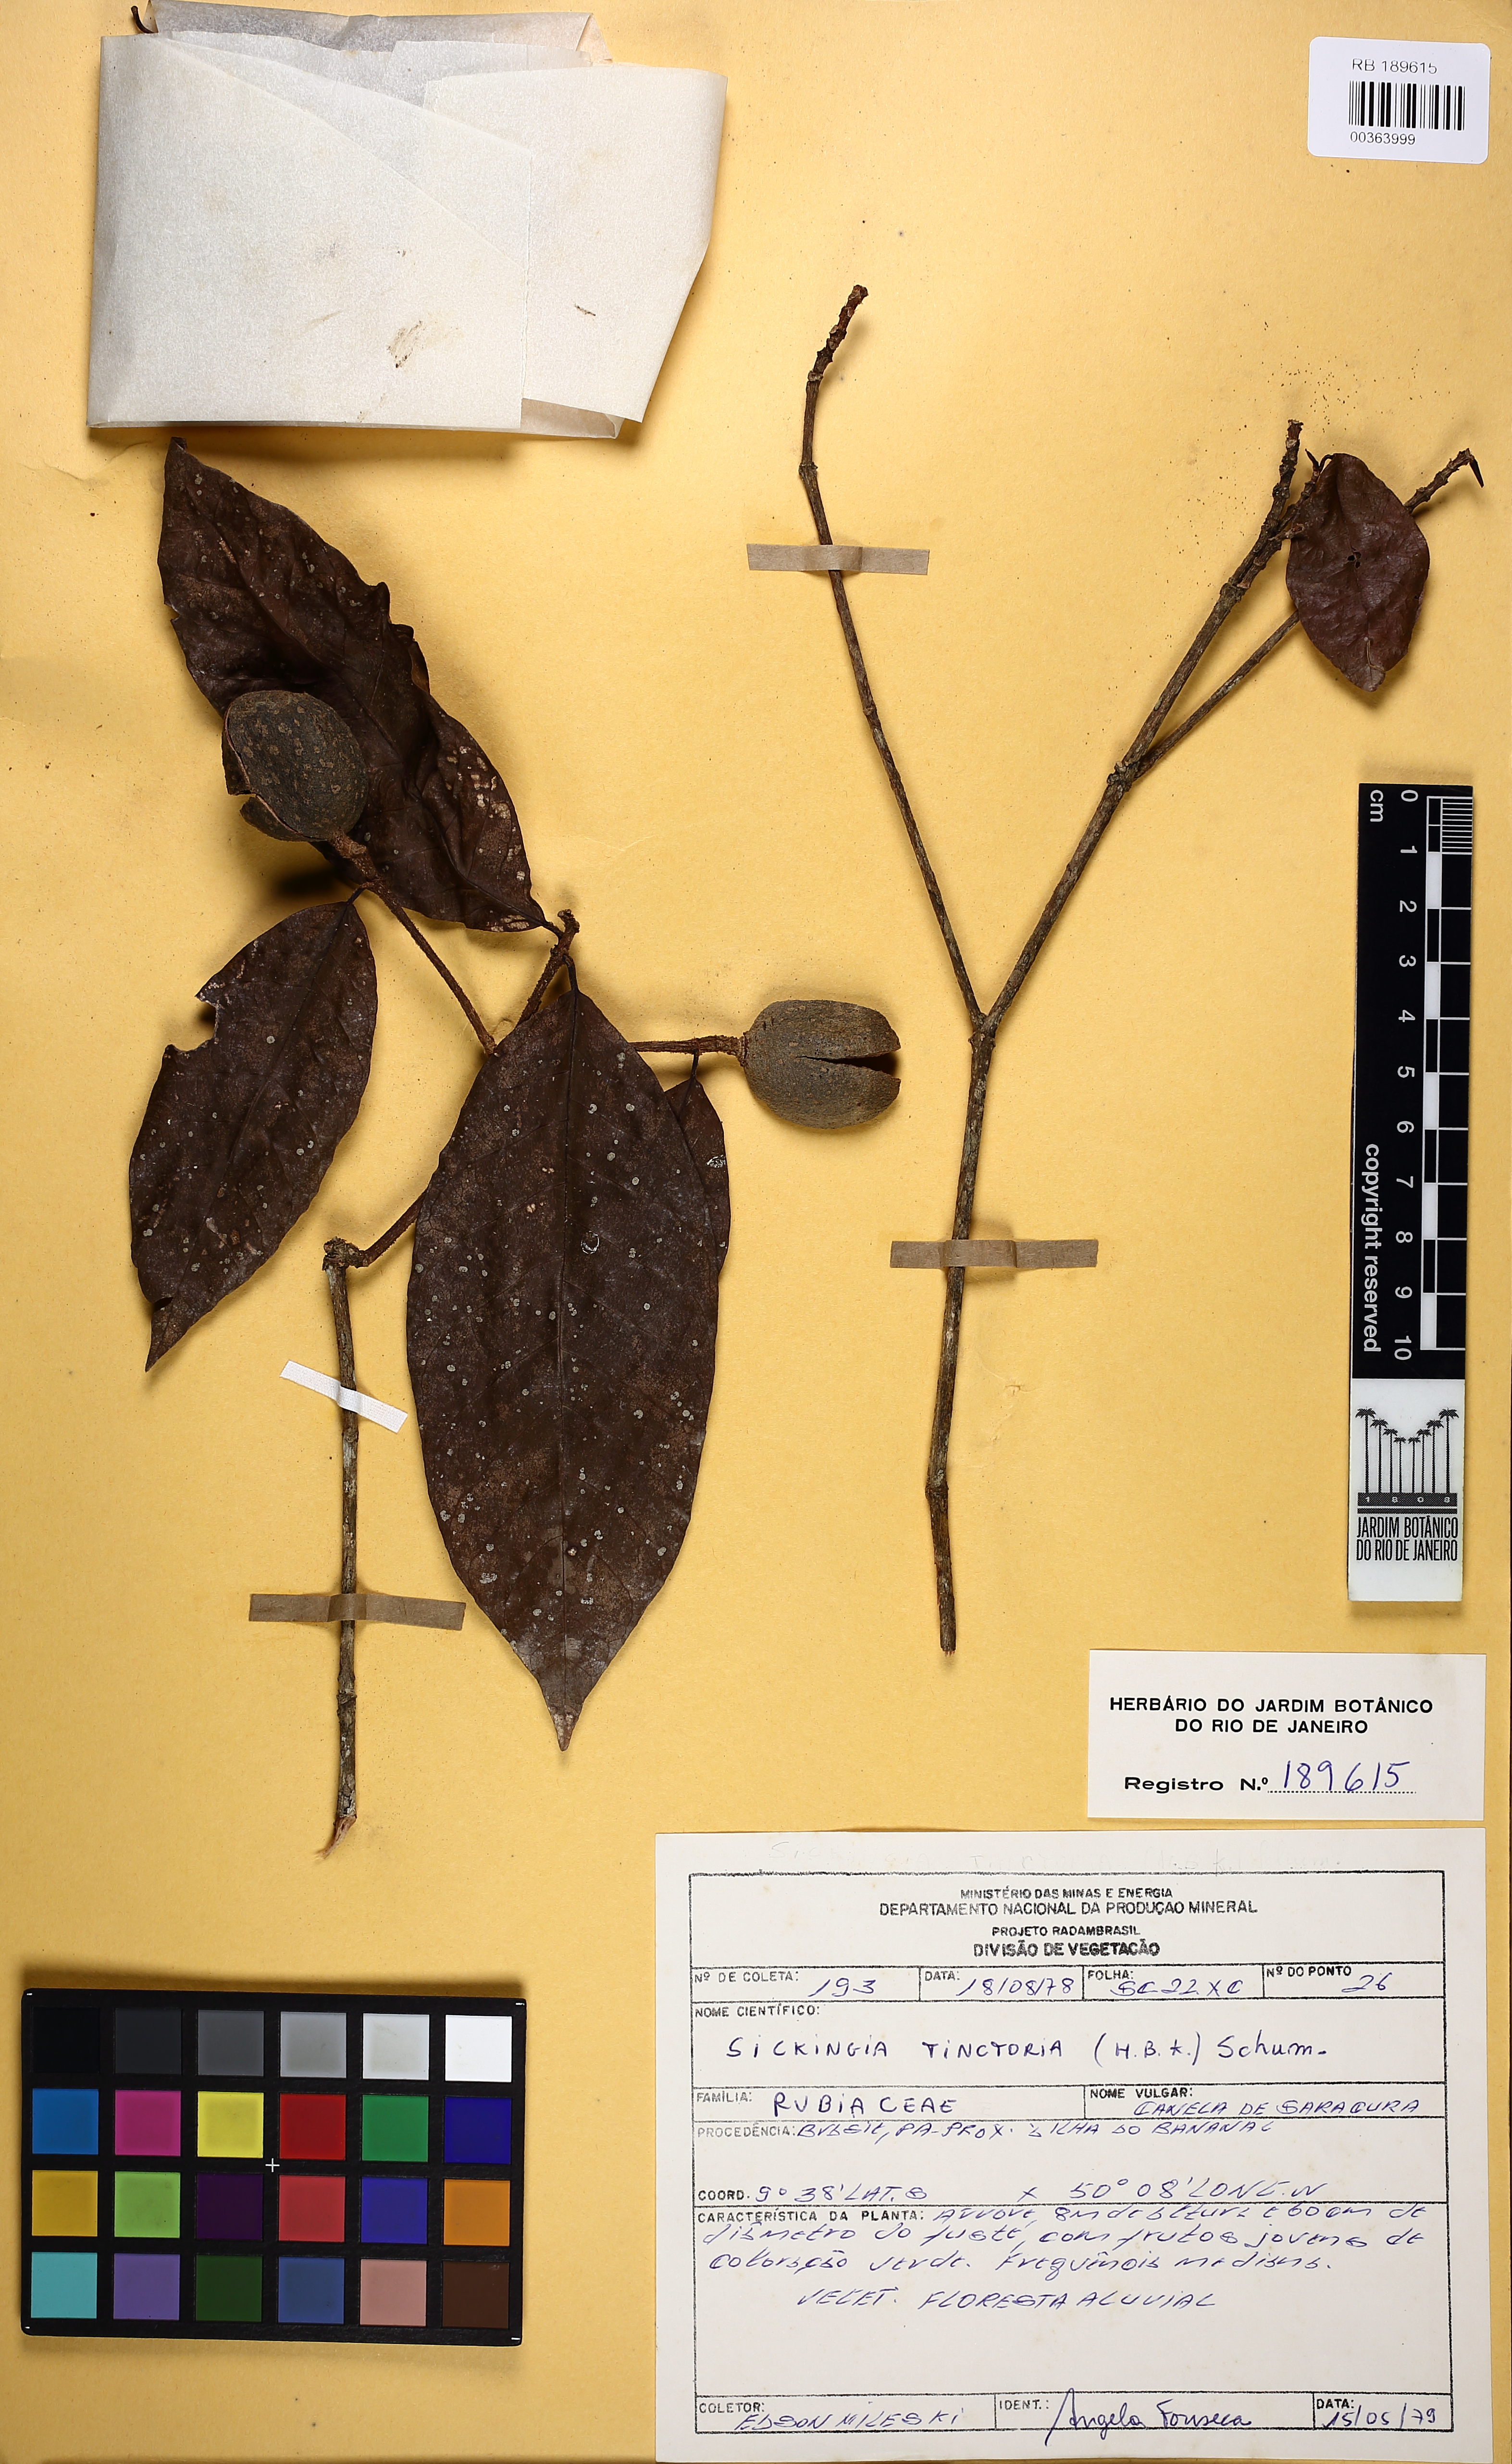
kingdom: Plantae
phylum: Tracheophyta
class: Magnoliopsida
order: Gentianales
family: Rubiaceae
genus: Simira
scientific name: Simira rubescens
